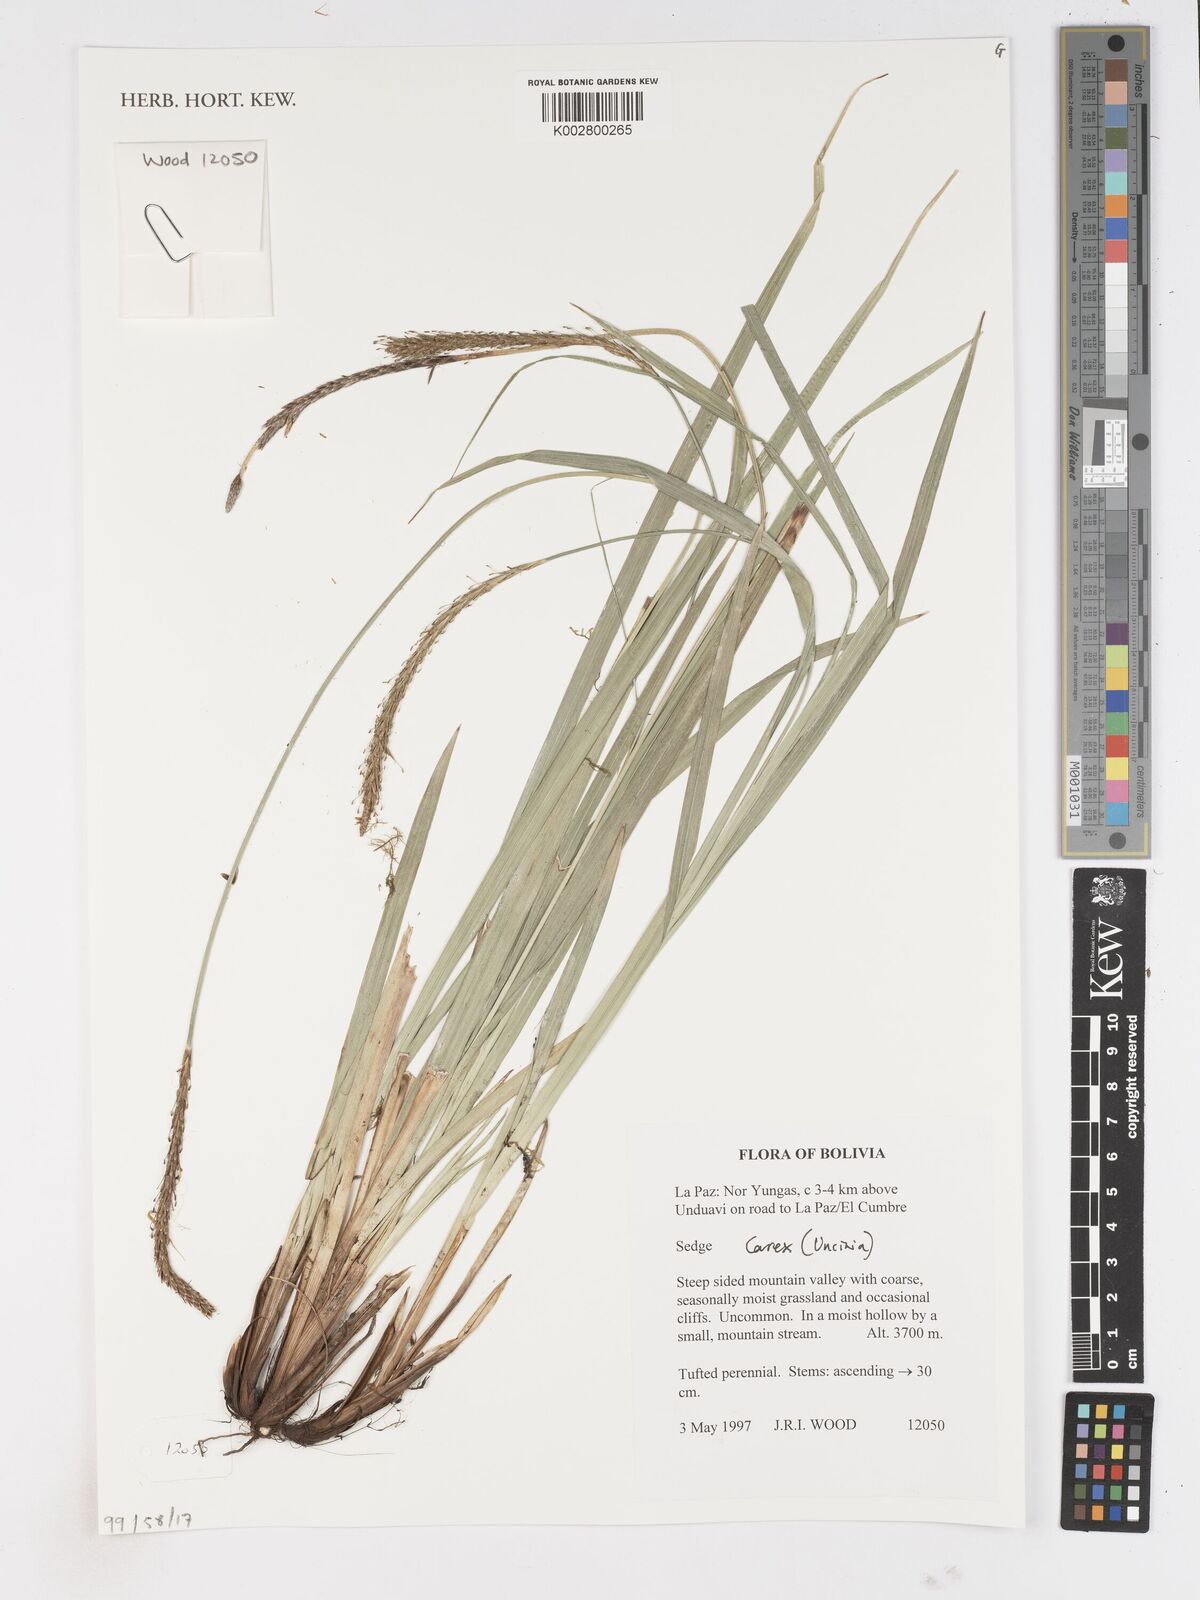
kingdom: Plantae
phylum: Tracheophyta
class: Liliopsida
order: Poales
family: Cyperaceae
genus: Carex
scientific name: Carex
